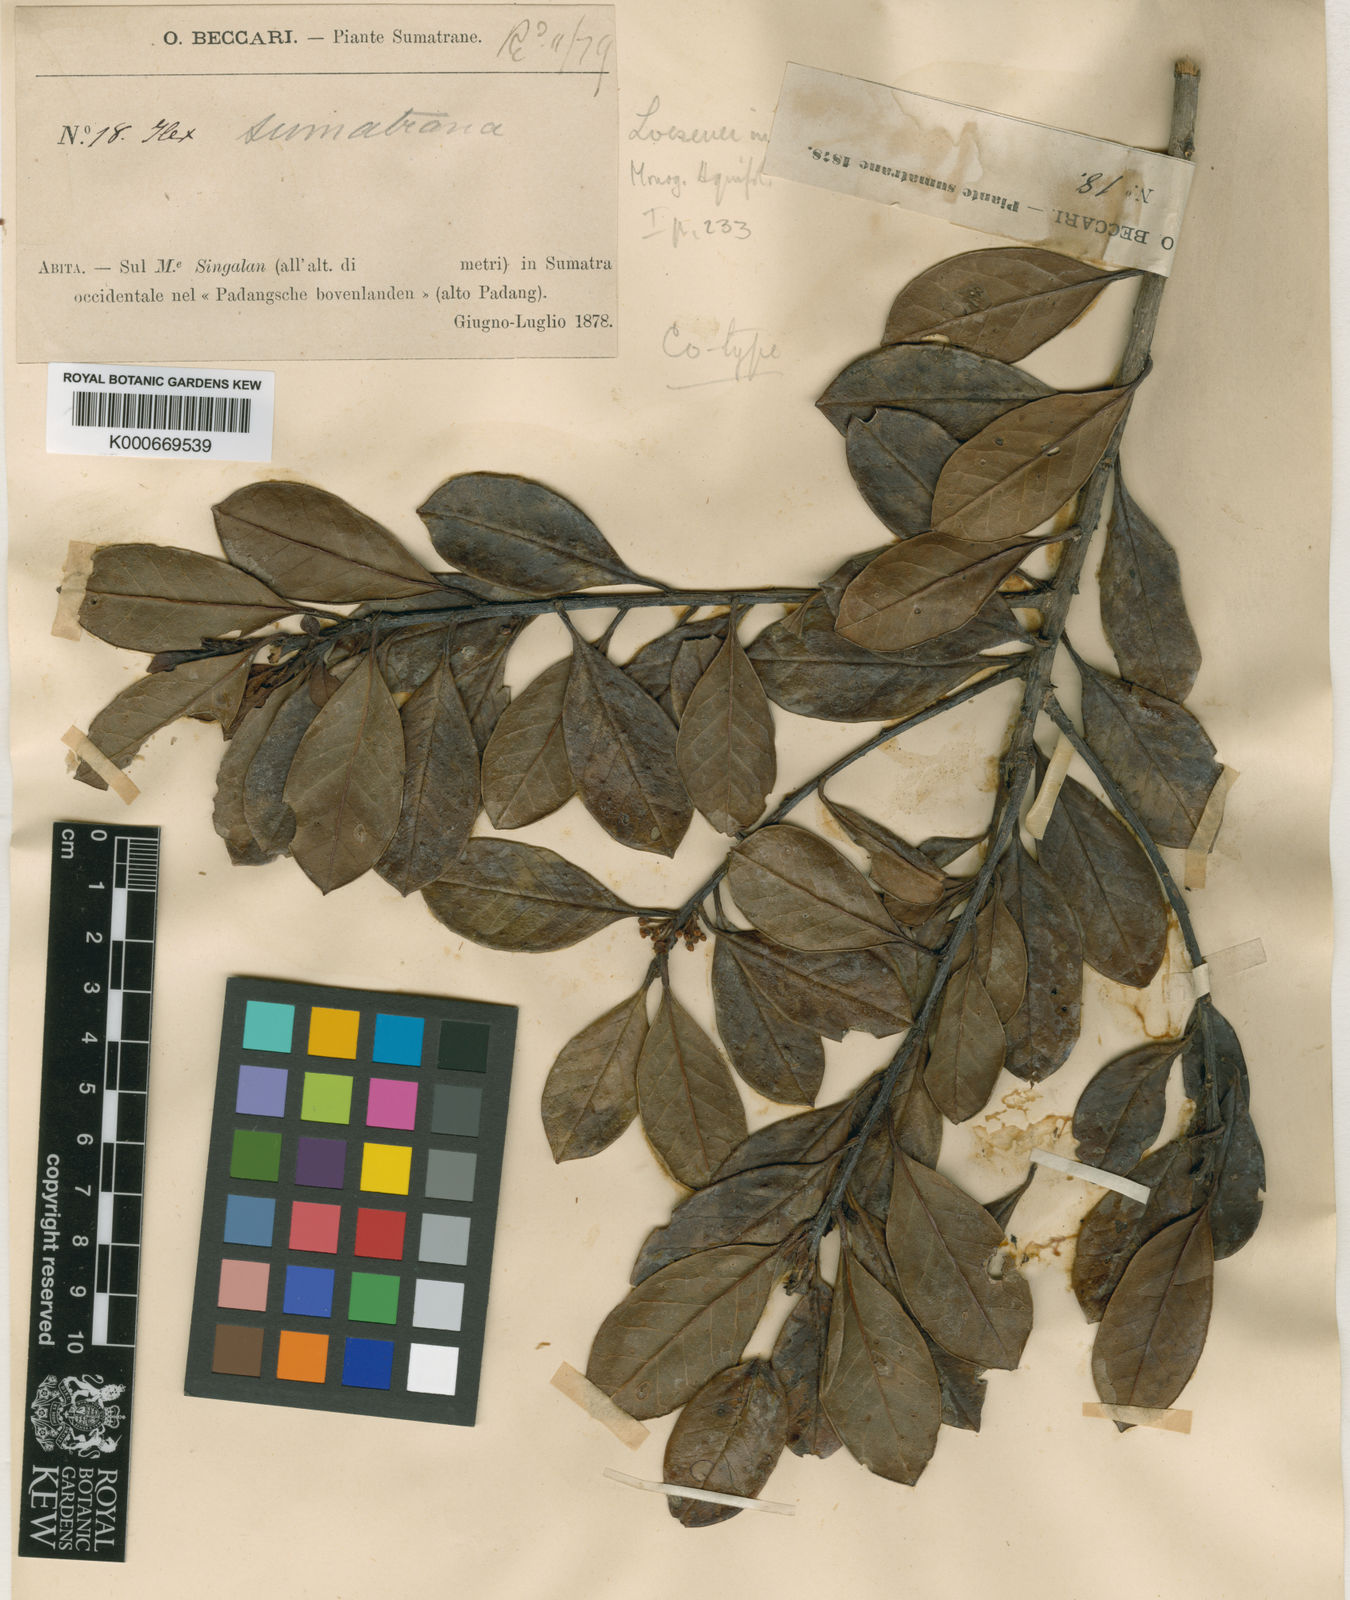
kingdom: Plantae
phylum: Tracheophyta
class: Magnoliopsida
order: Aquifoliales
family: Aquifoliaceae
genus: Ilex
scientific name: Ilex sumatrana
